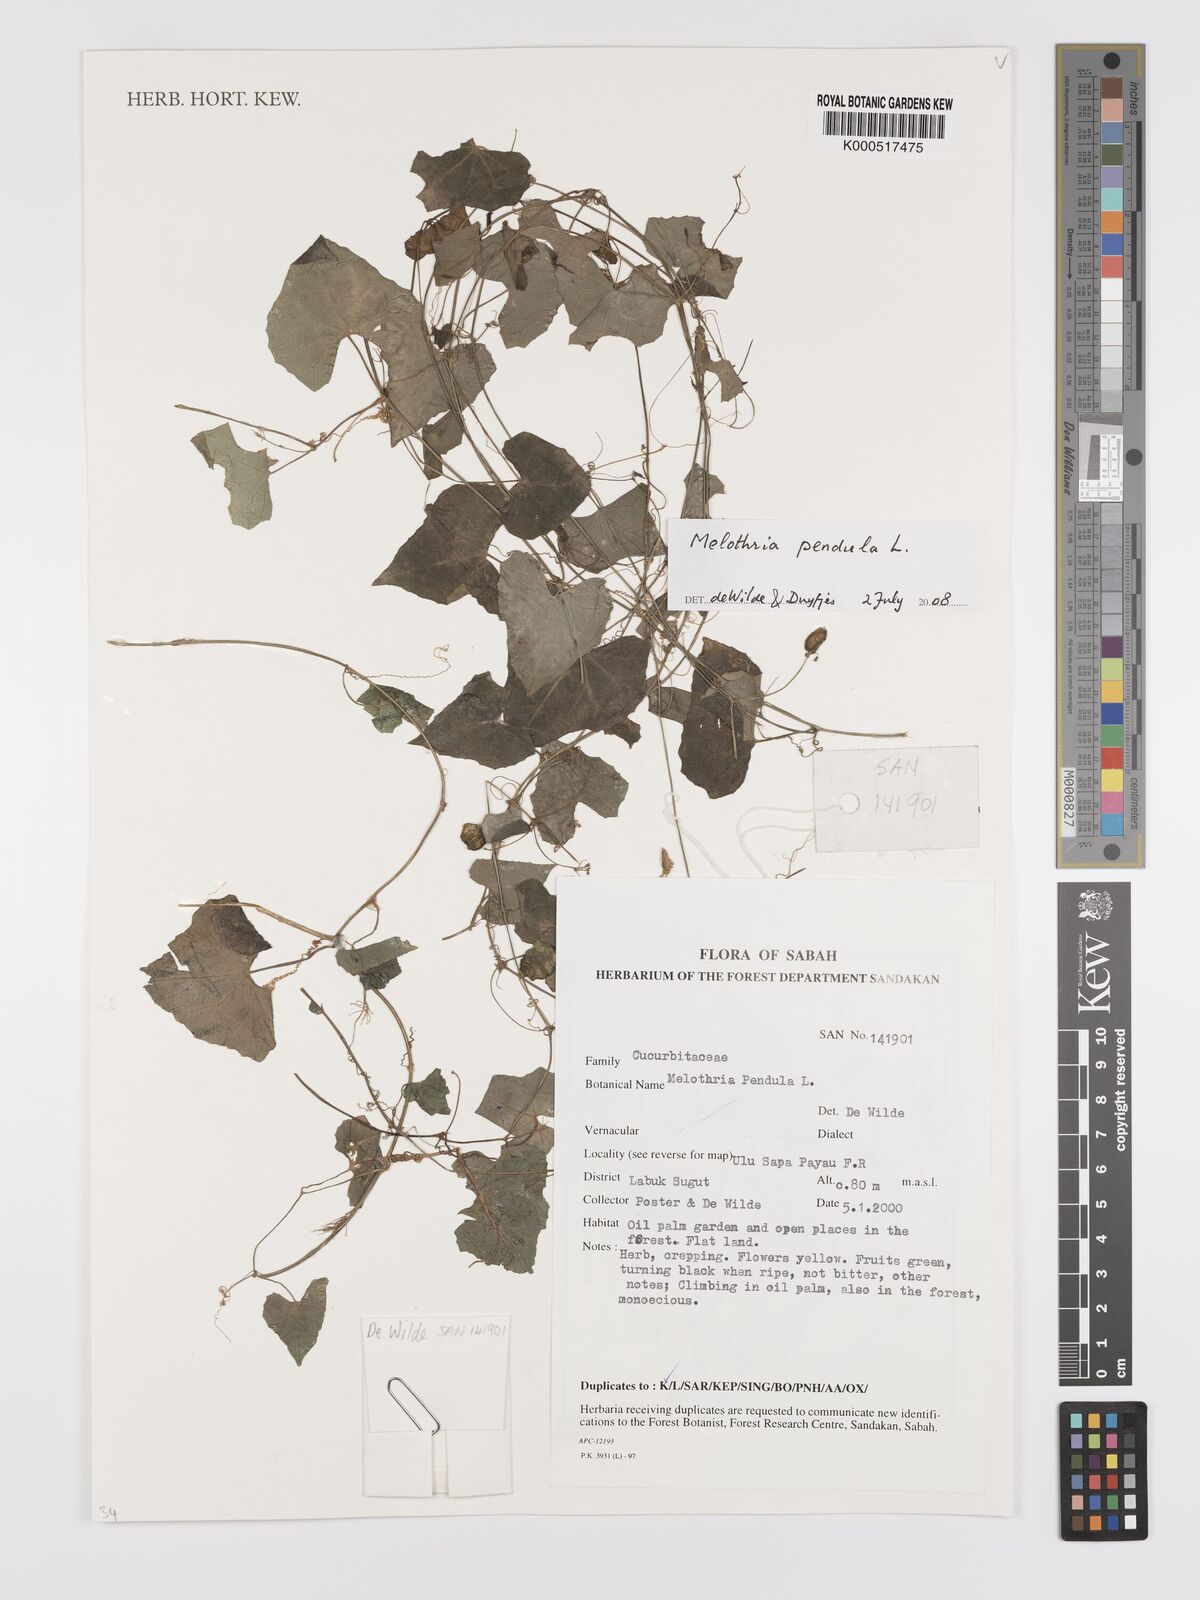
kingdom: Plantae
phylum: Tracheophyta
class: Magnoliopsida
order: Cucurbitales
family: Cucurbitaceae
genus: Melothria
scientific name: Melothria pendula
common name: Creeping-cucumber
